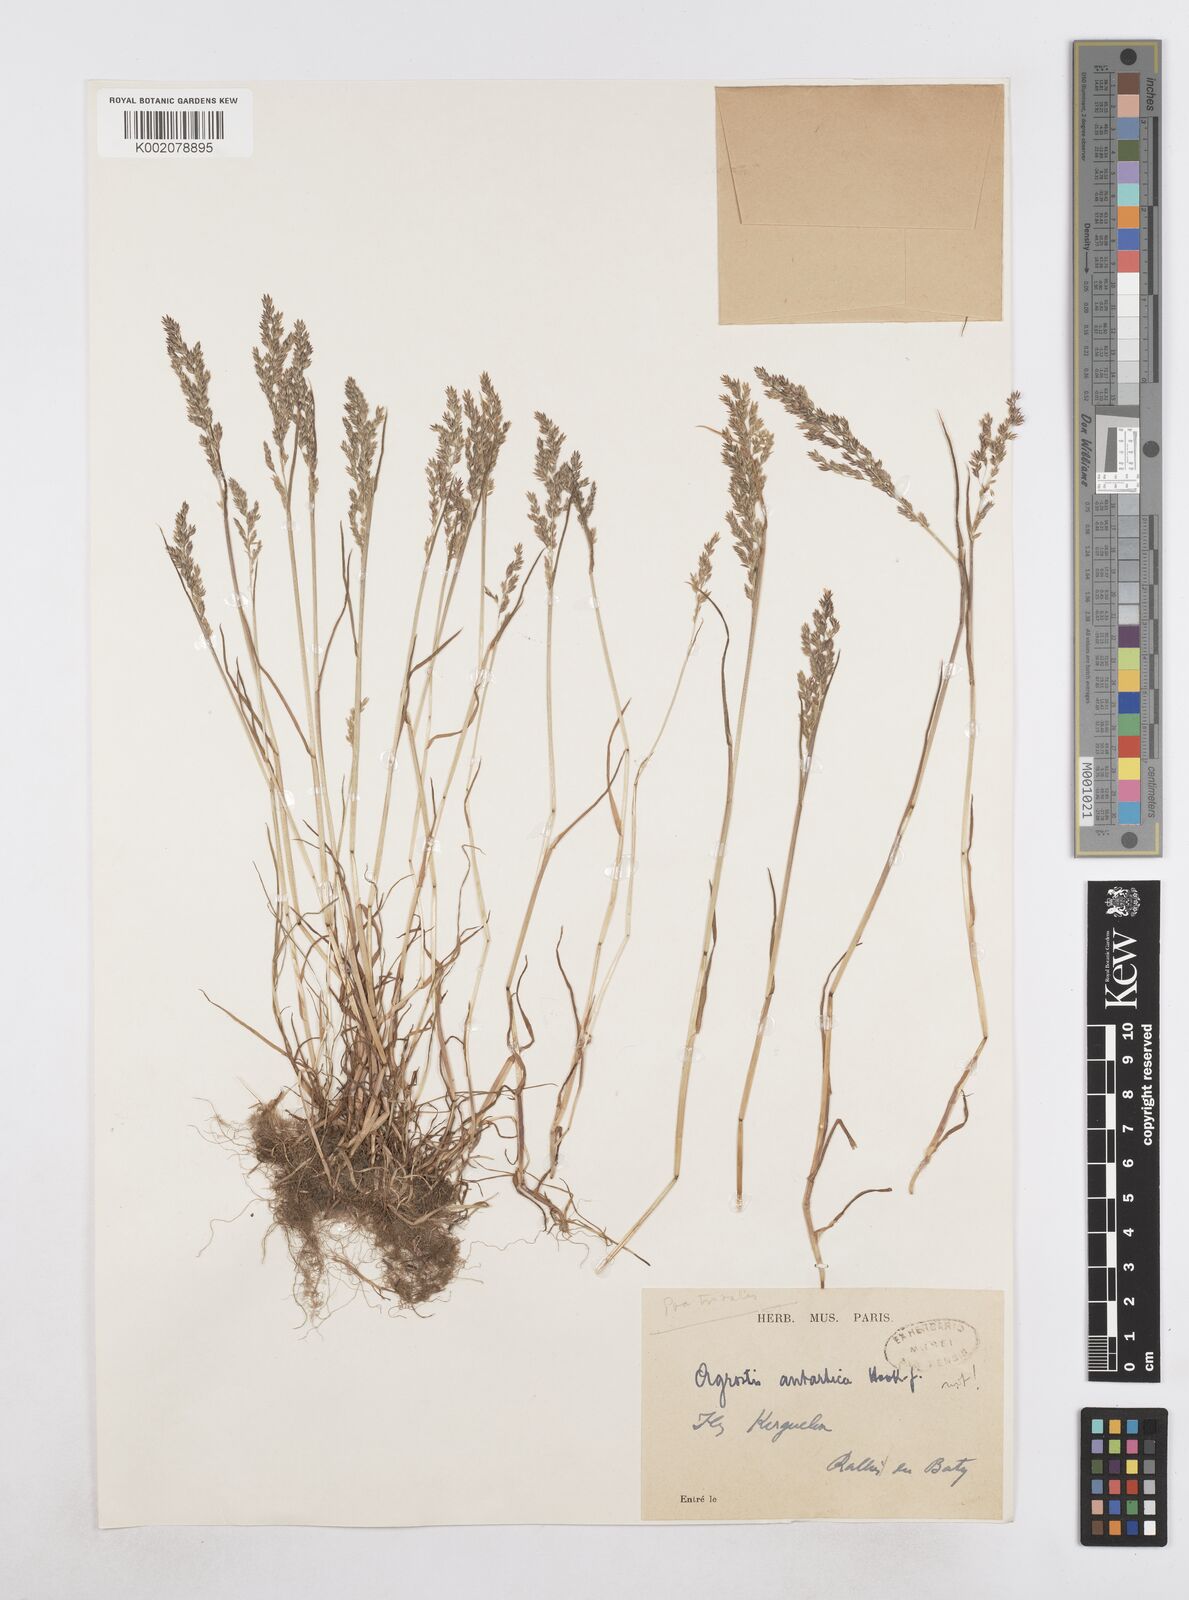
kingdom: Plantae
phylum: Tracheophyta
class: Liliopsida
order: Poales
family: Poaceae
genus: Poa
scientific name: Poa trivialis
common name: Rough bluegrass
